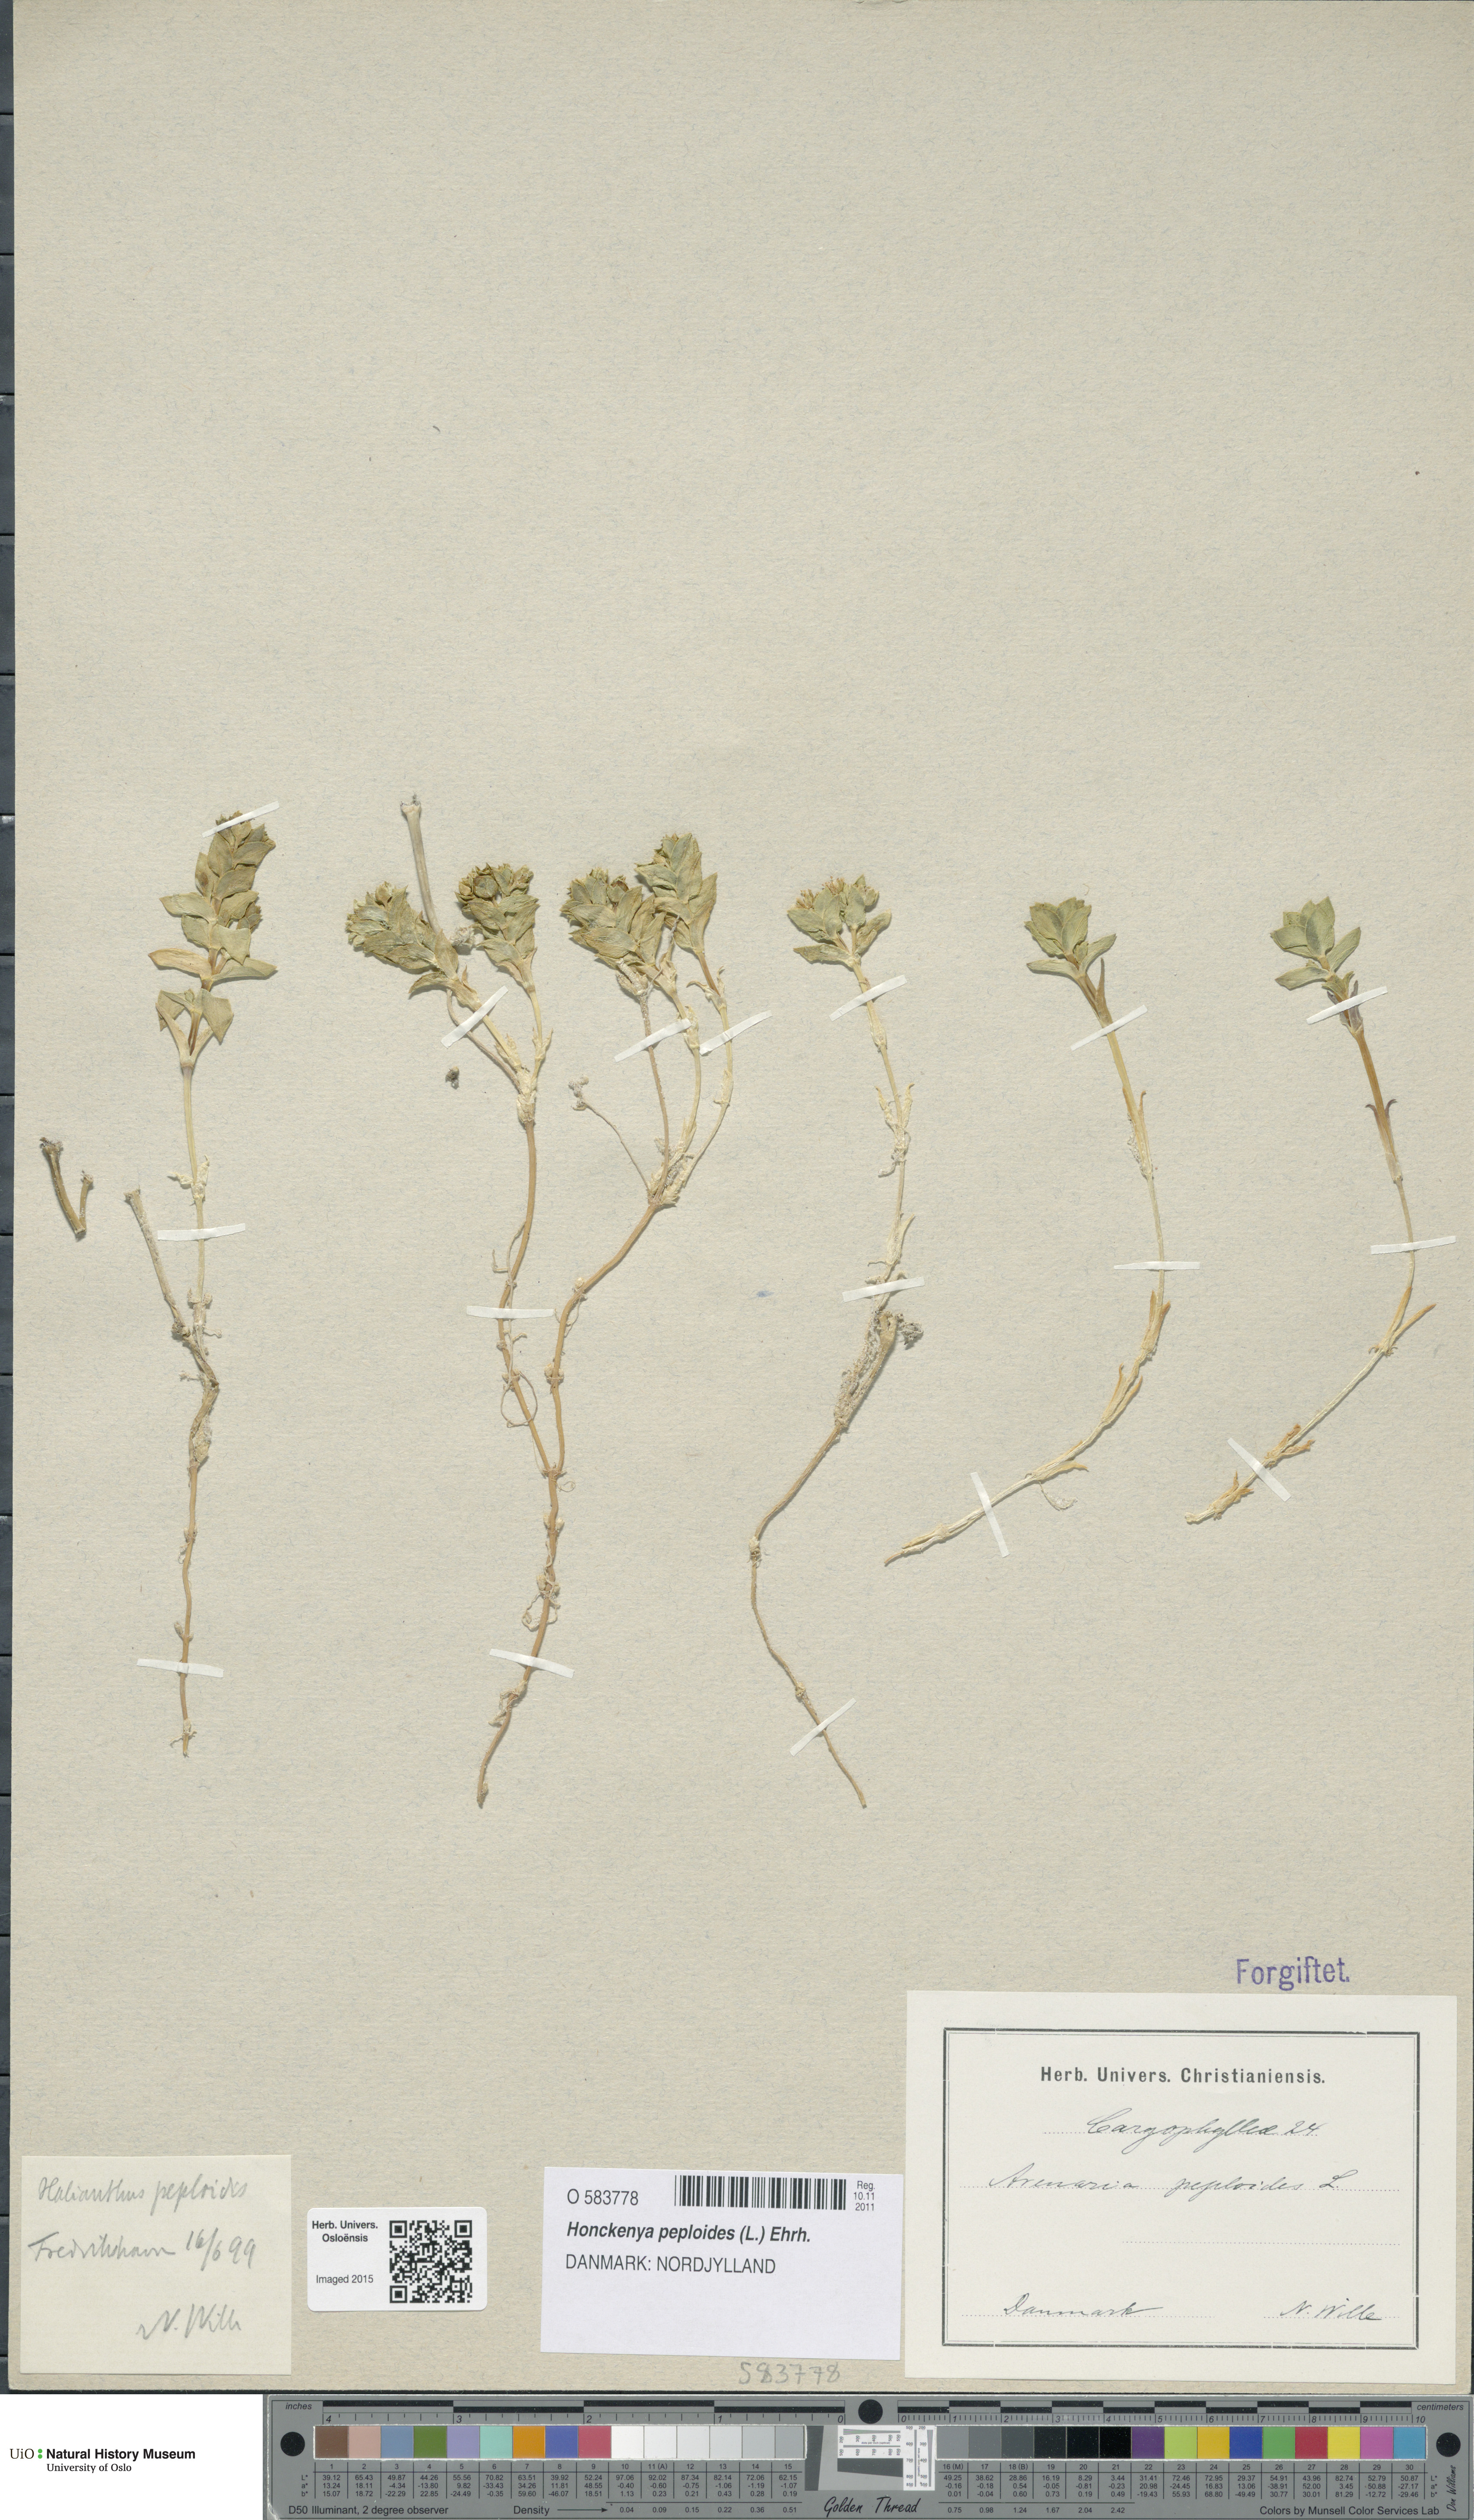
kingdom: Plantae
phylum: Tracheophyta
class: Magnoliopsida
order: Caryophyllales
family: Caryophyllaceae
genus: Honckenya
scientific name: Honckenya peploides
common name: Sea sandwort
